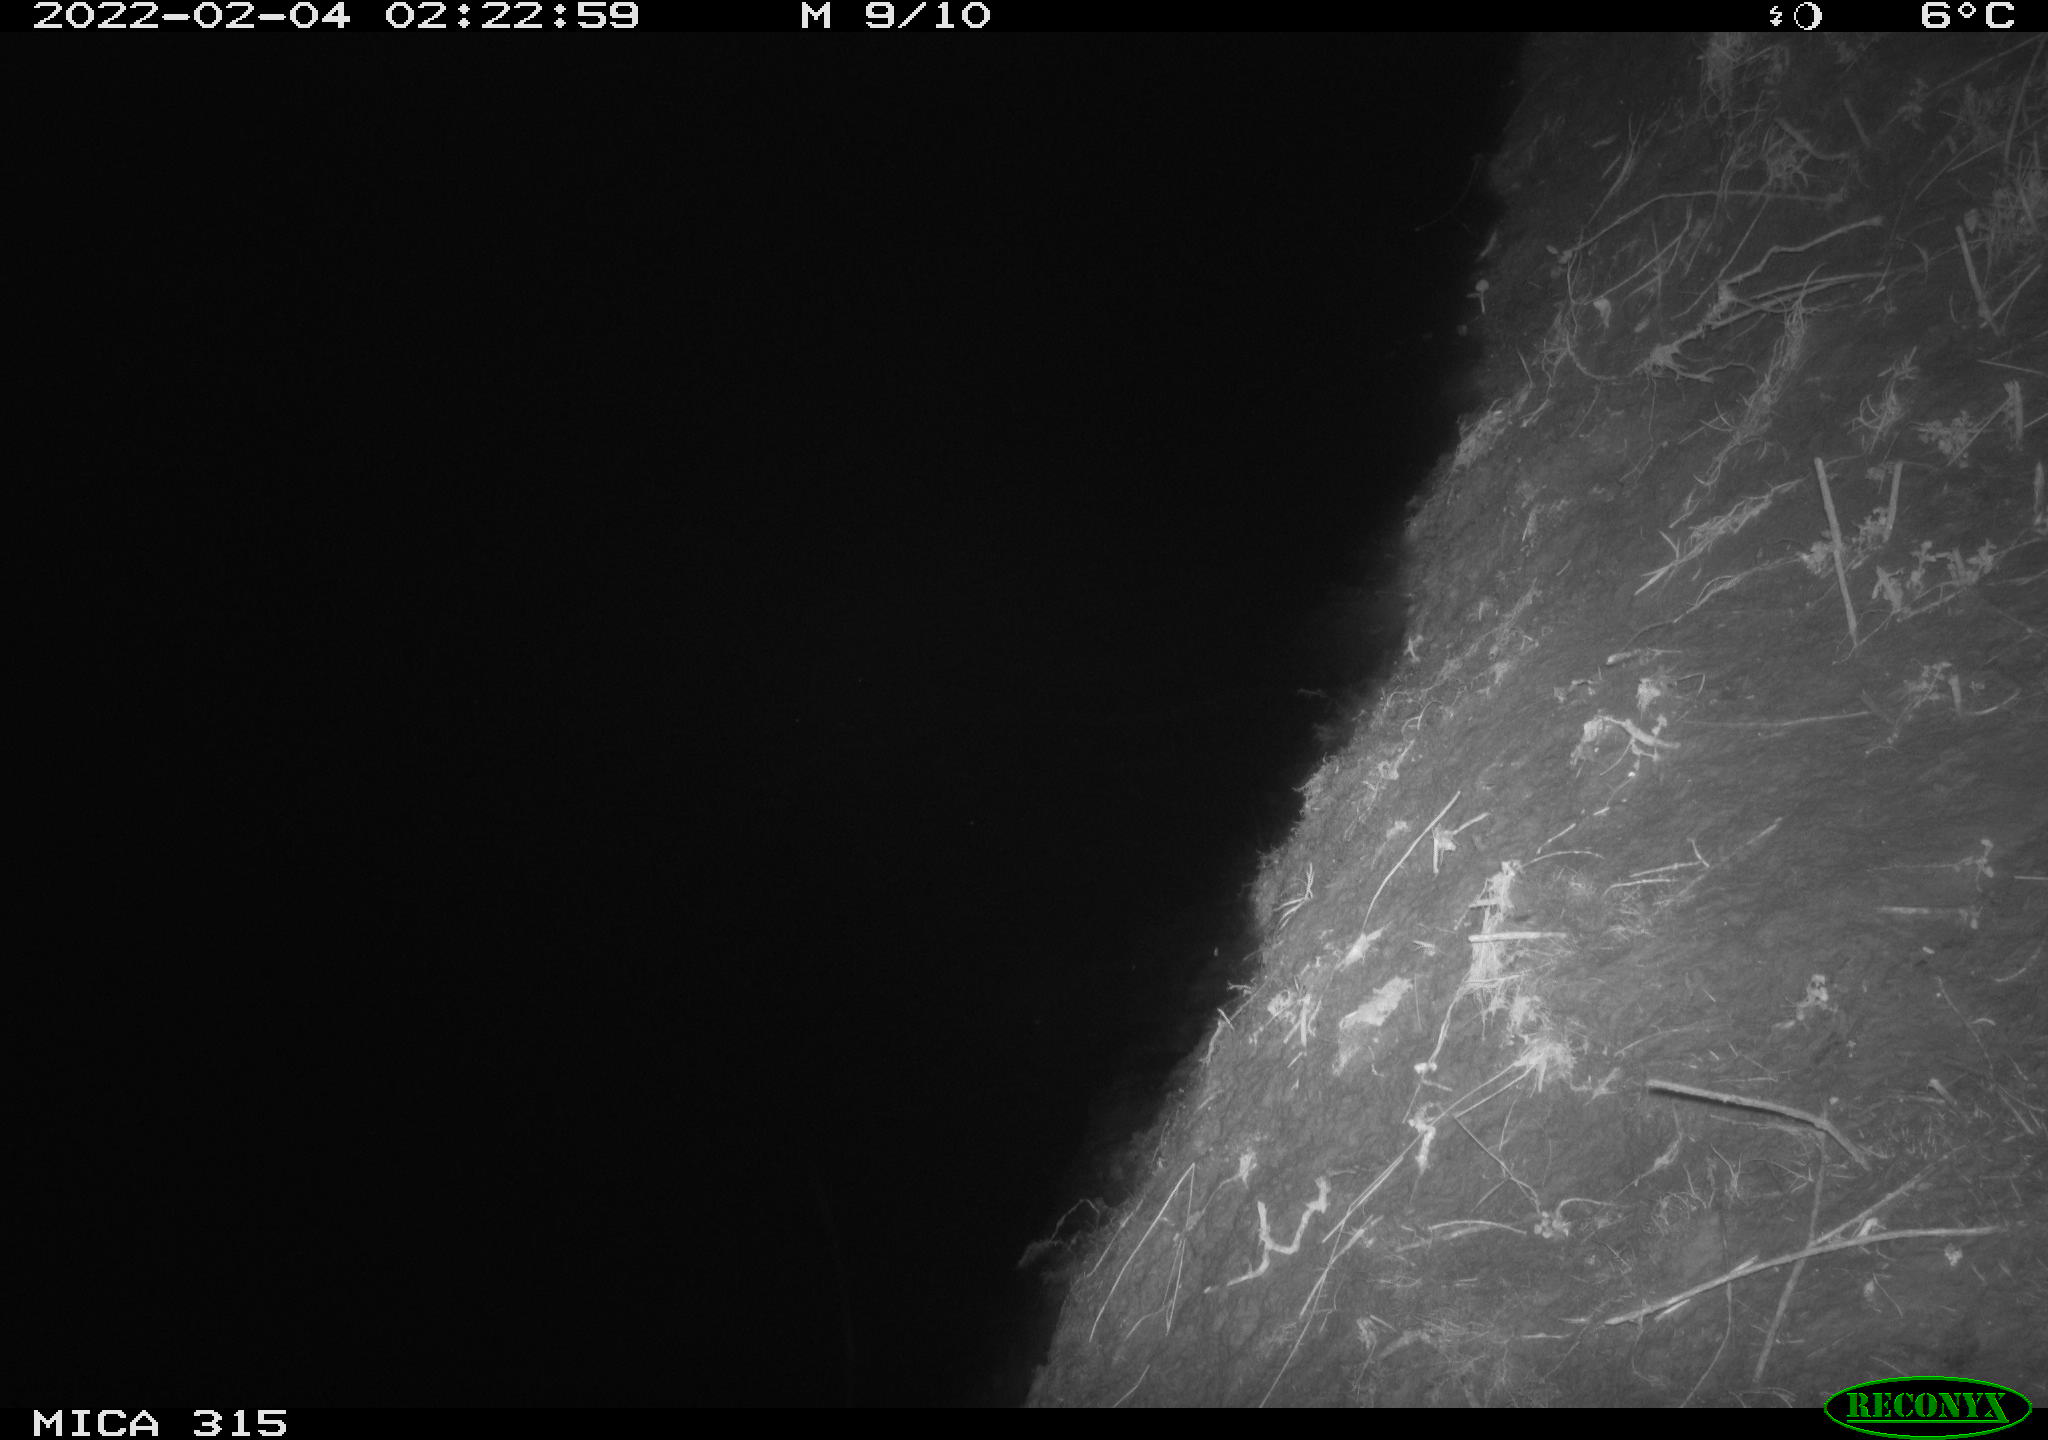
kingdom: Animalia
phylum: Chordata
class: Mammalia
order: Rodentia
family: Muridae
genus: Rattus
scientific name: Rattus norvegicus
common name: Brown rat
